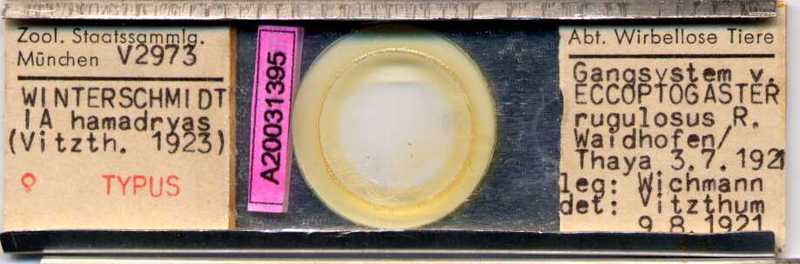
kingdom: Animalia
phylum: Arthropoda
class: Arachnida
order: Sarcoptiformes
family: Winterschmidtiidae
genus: Winterschmidtia
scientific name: Winterschmidtia hamadryas
